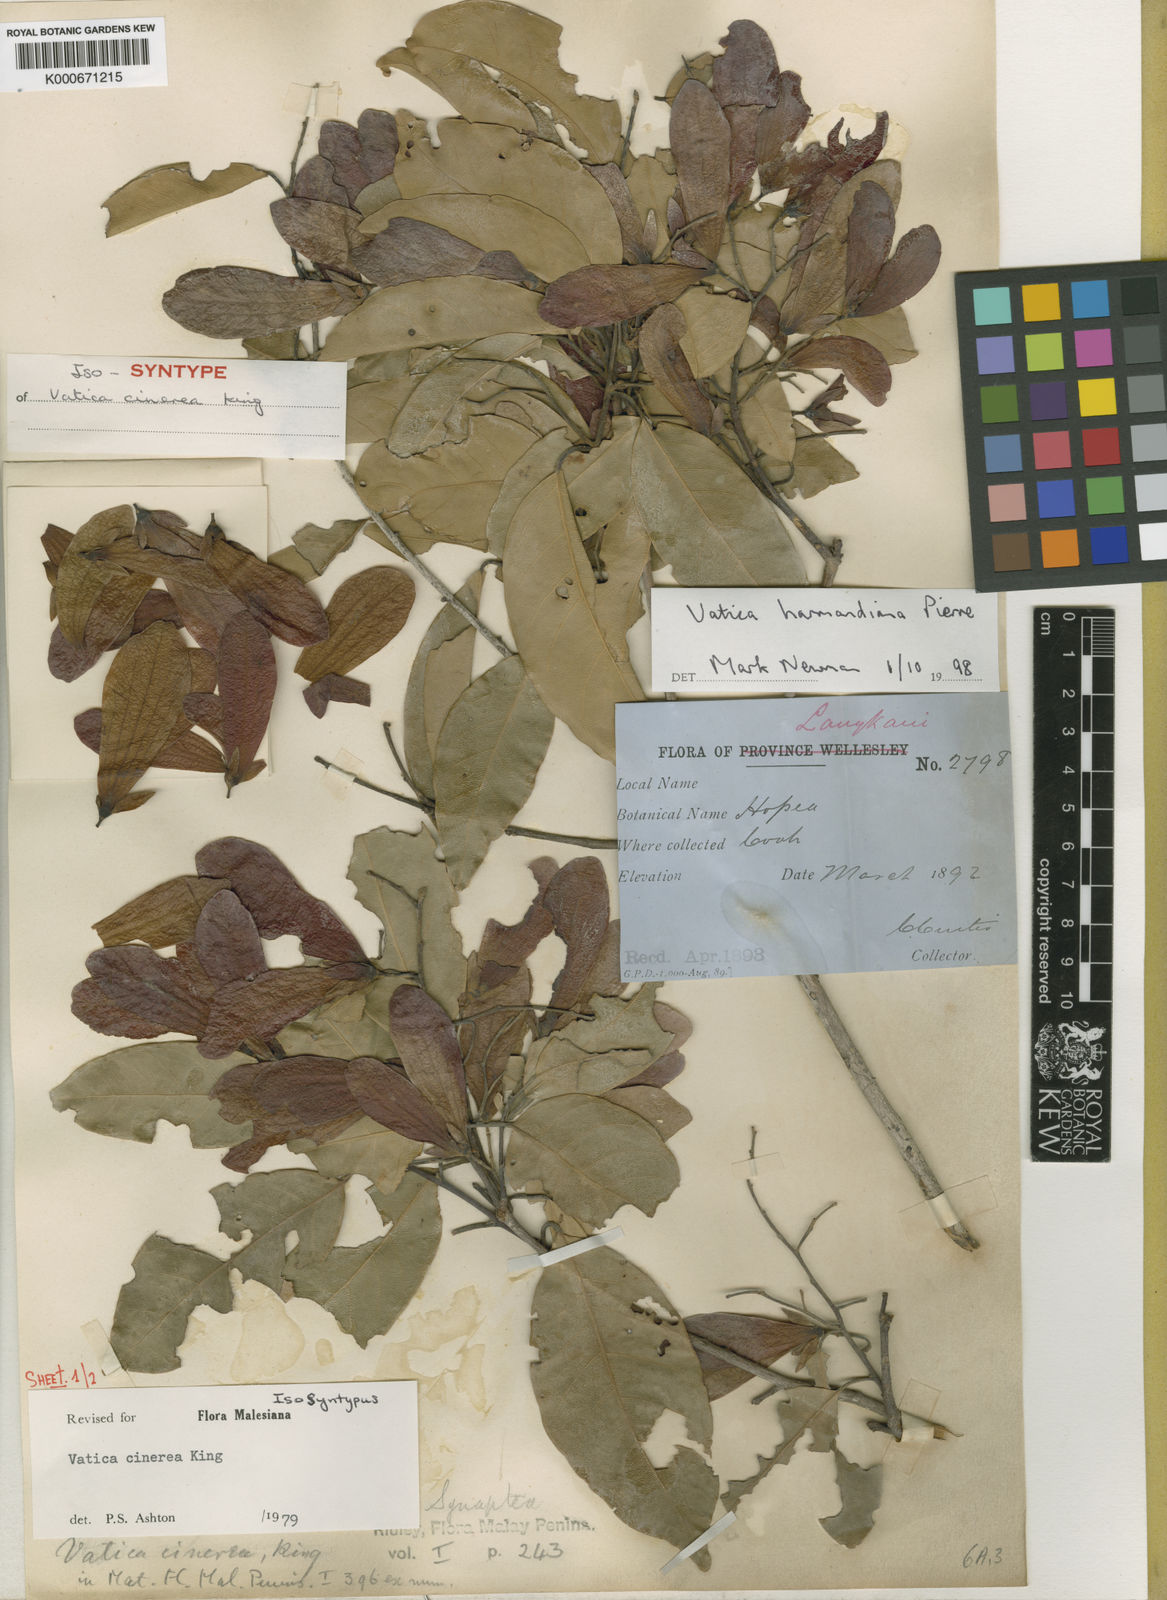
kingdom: Plantae
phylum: Tracheophyta
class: Magnoliopsida
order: Malvales
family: Dipterocarpaceae
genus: Vatica
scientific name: Vatica harmandiana
